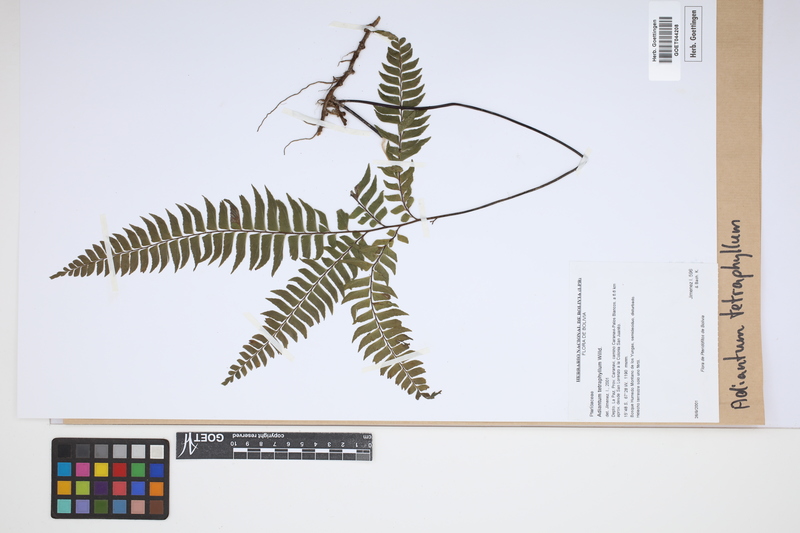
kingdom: Plantae
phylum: Tracheophyta
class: Polypodiopsida
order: Polypodiales
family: Pteridaceae
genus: Adiantum
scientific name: Adiantum tetraphyllum
